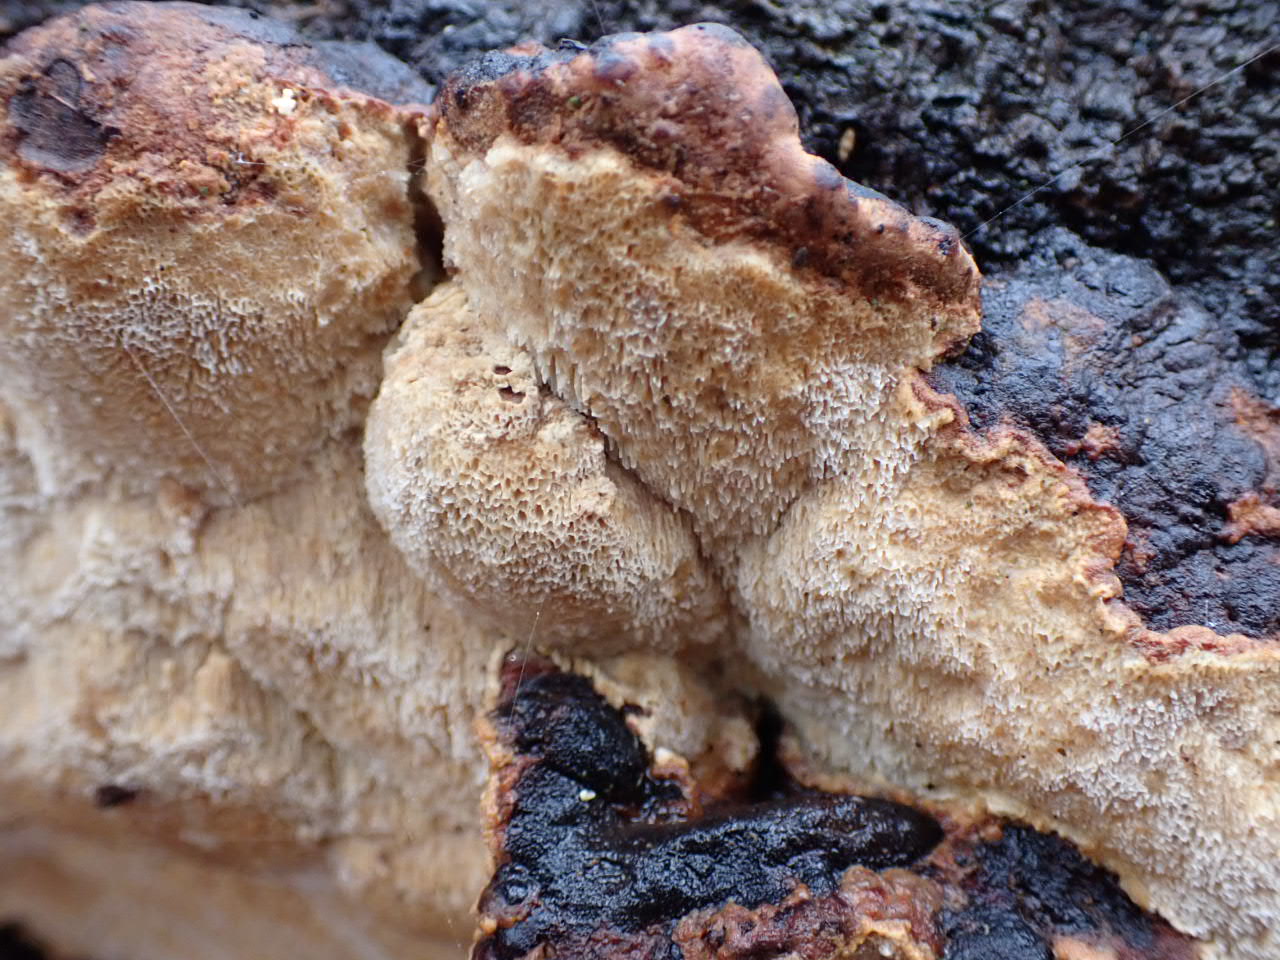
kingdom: Fungi
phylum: Basidiomycota
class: Agaricomycetes
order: Polyporales
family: Ischnodermataceae
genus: Ischnoderma
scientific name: Ischnoderma resinosum
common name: løv-tjæreporesvamp
